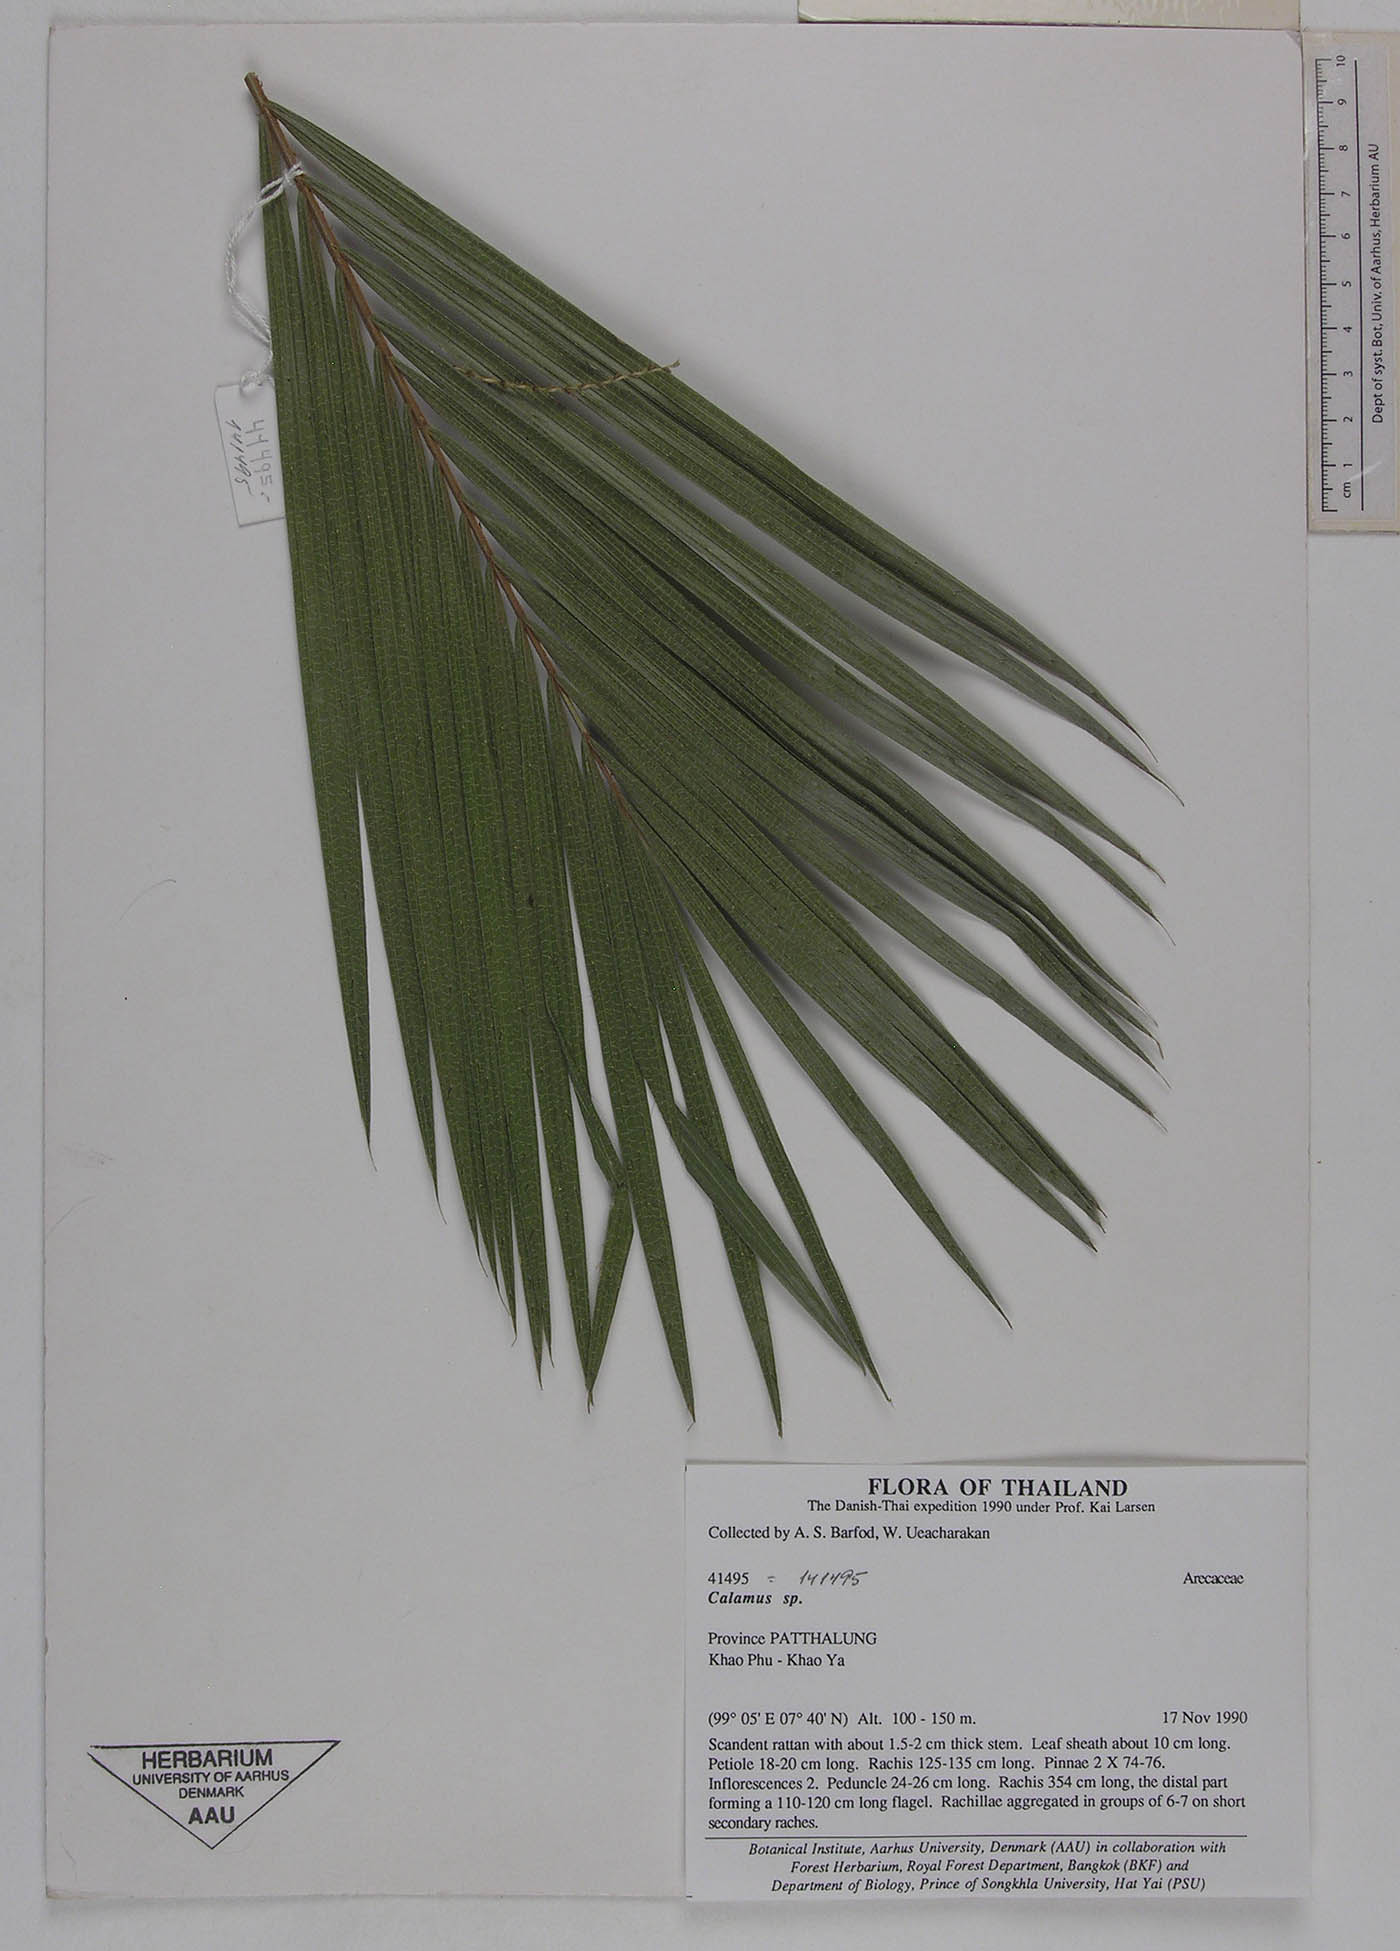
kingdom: Plantae
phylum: Tracheophyta
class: Liliopsida
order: Arecales
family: Arecaceae
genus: Calamus
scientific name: Calamus balingensis
